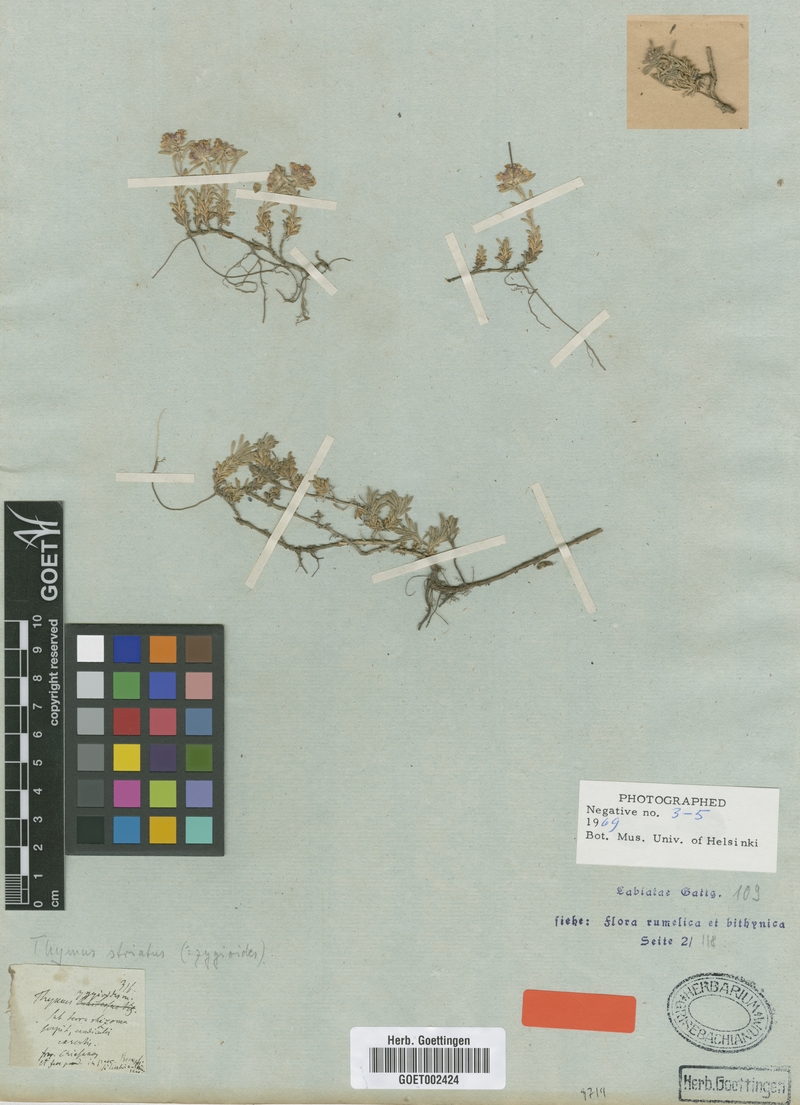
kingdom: Plantae
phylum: Tracheophyta
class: Magnoliopsida
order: Lamiales
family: Lamiaceae
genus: Thymus
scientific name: Thymus zygioides
